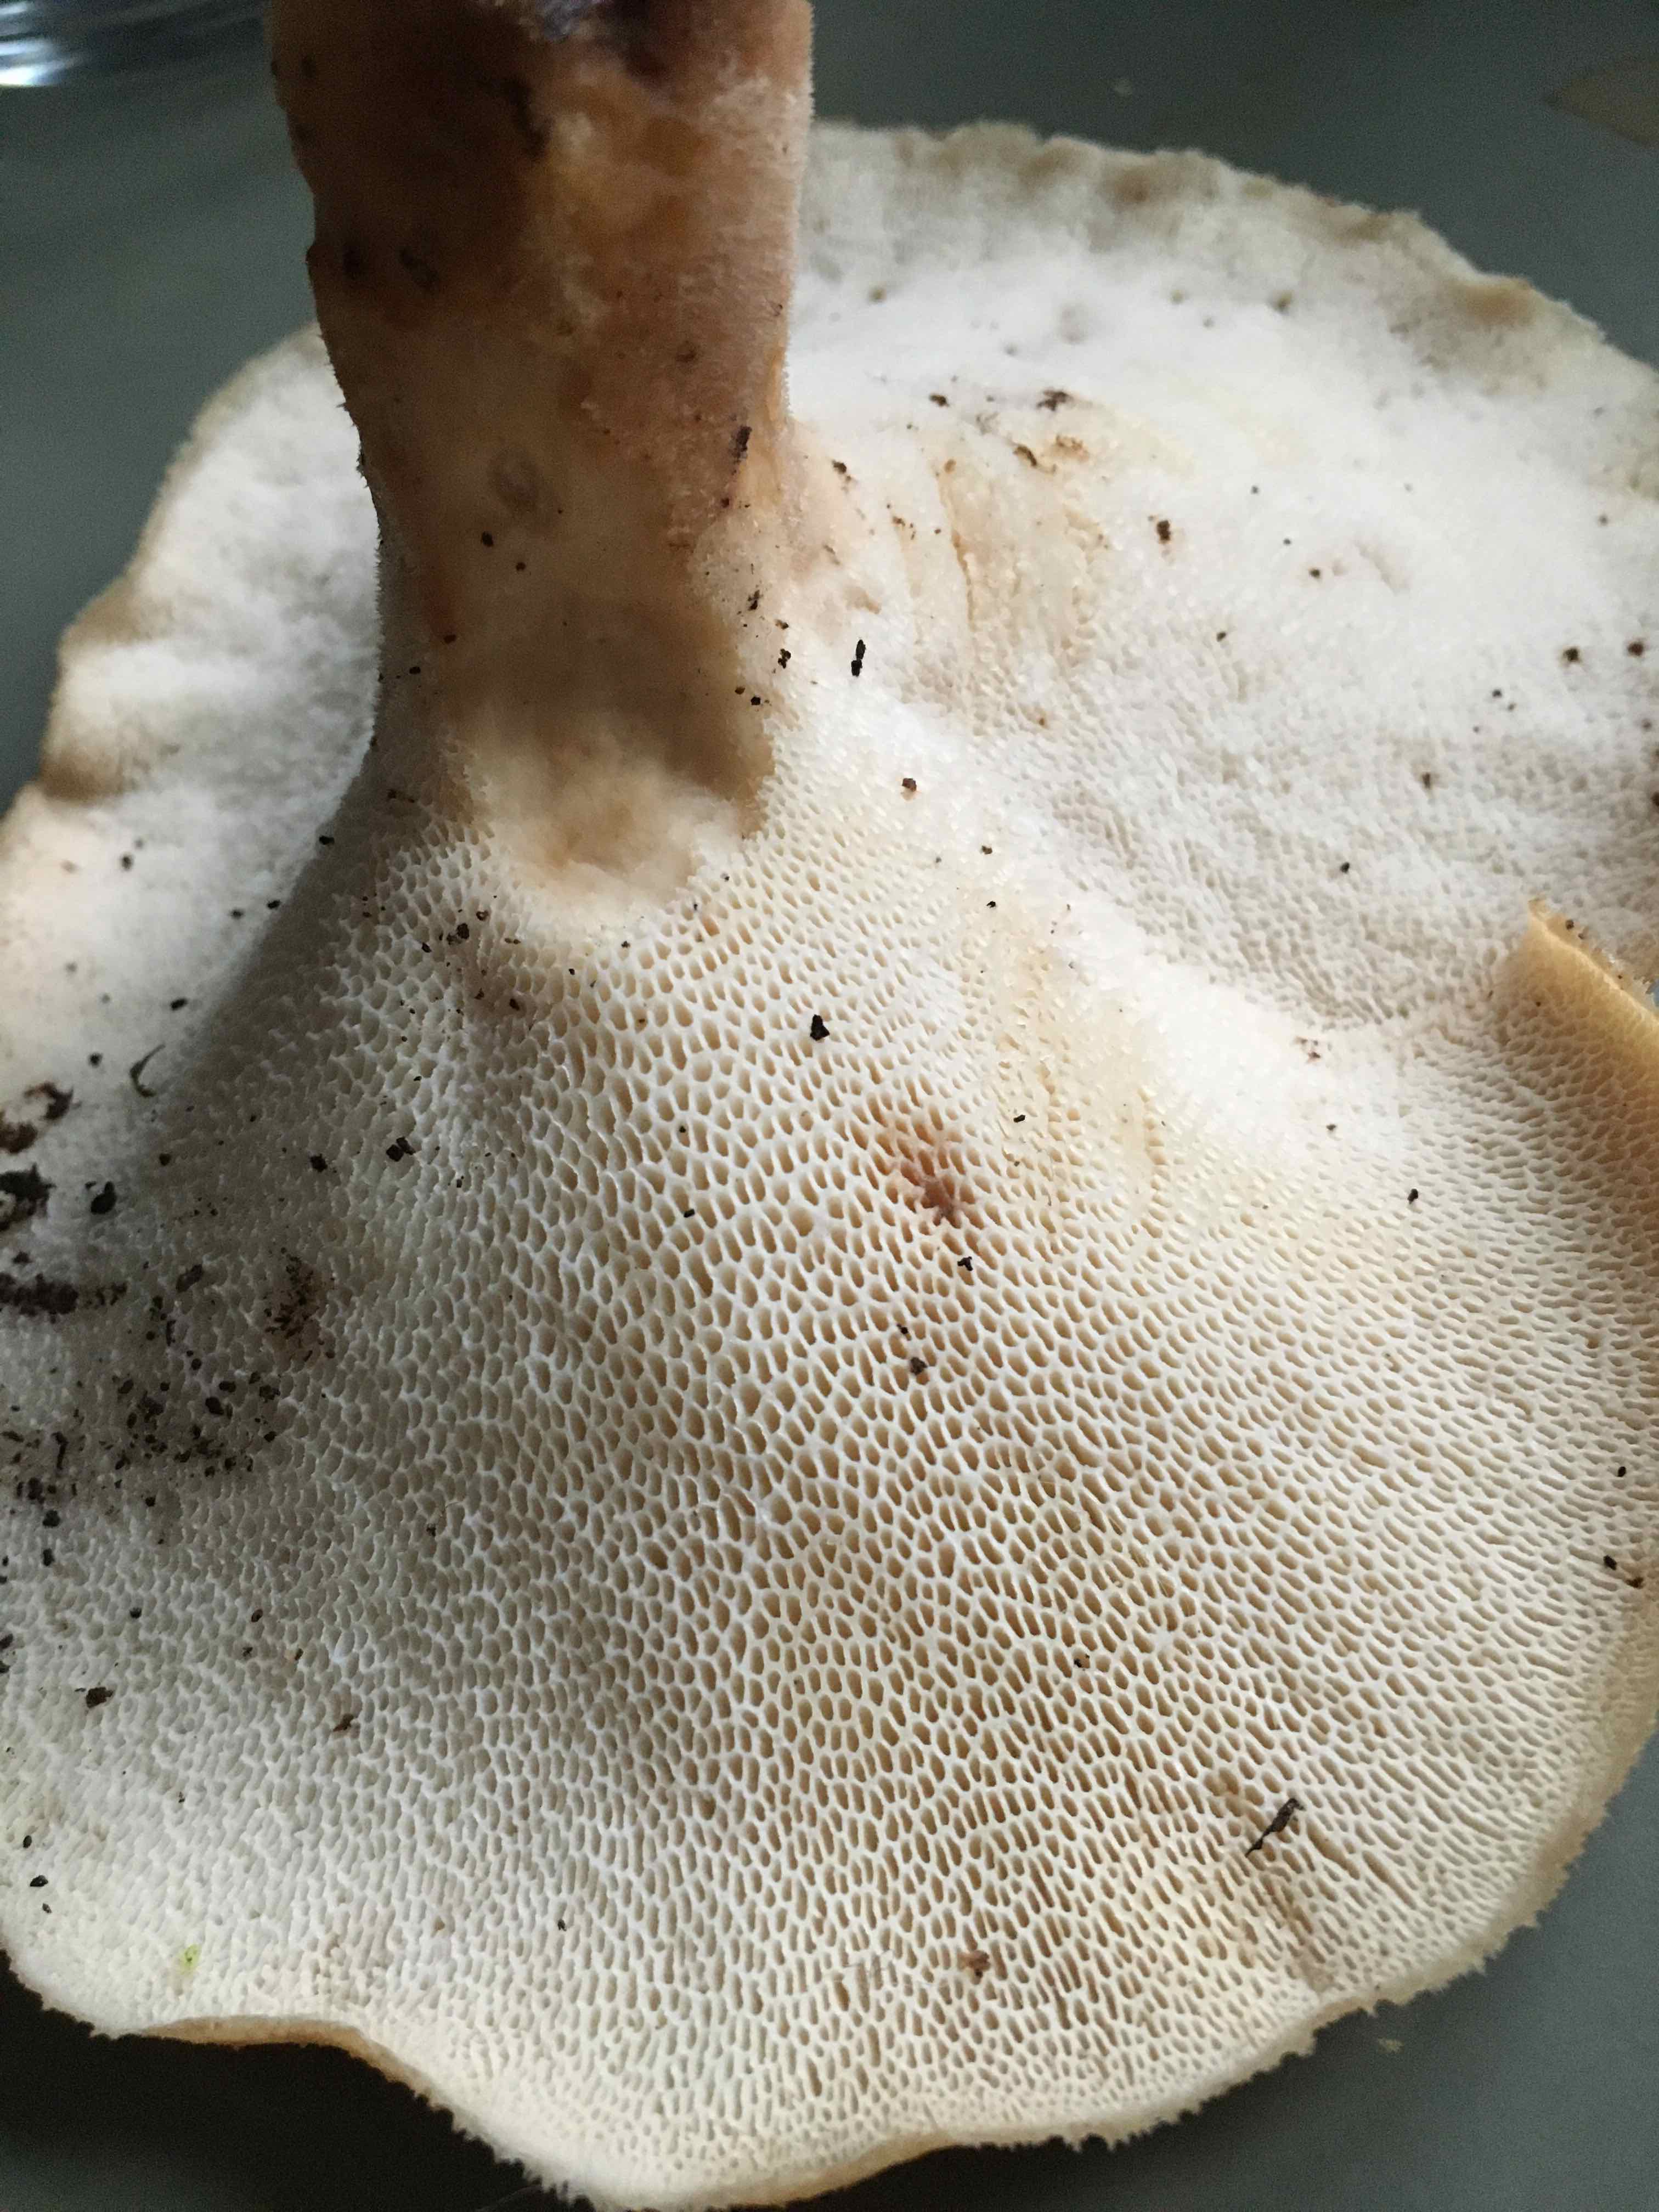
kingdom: Fungi
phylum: Basidiomycota
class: Agaricomycetes
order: Polyporales
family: Polyporaceae
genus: Polyporus
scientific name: Polyporus tuberaster
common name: knoldet stilkporesvamp
